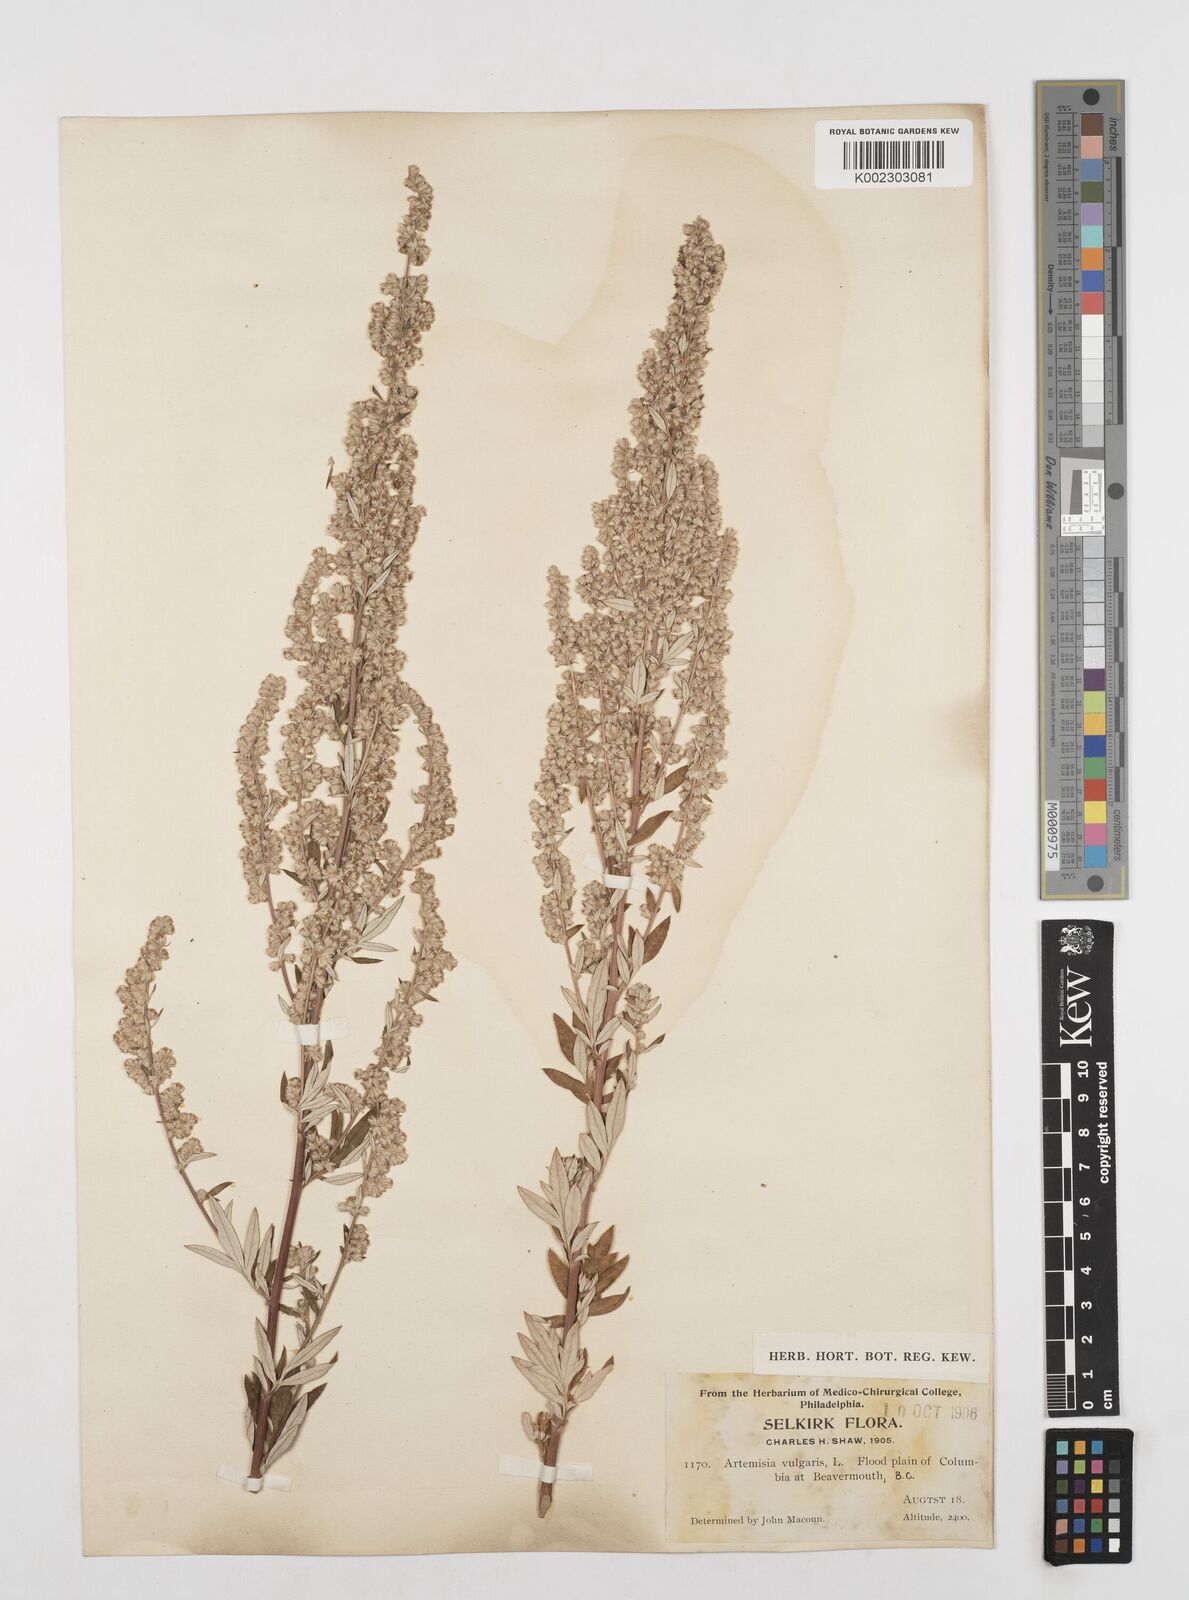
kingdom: Plantae
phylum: Tracheophyta
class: Magnoliopsida
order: Asterales
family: Asteraceae
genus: Artemisia
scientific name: Artemisia vulgaris
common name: Mugwort
